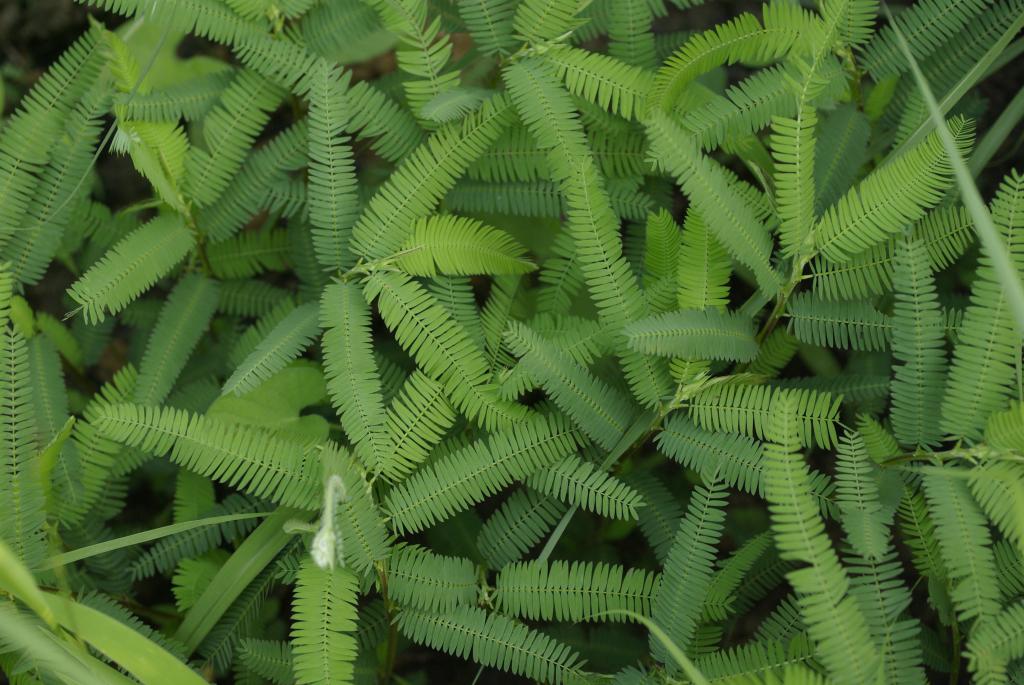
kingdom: Plantae
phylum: Tracheophyta
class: Magnoliopsida
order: Fabales
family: Fabaceae
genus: Chamaecrista
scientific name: Chamaecrista nictitans
